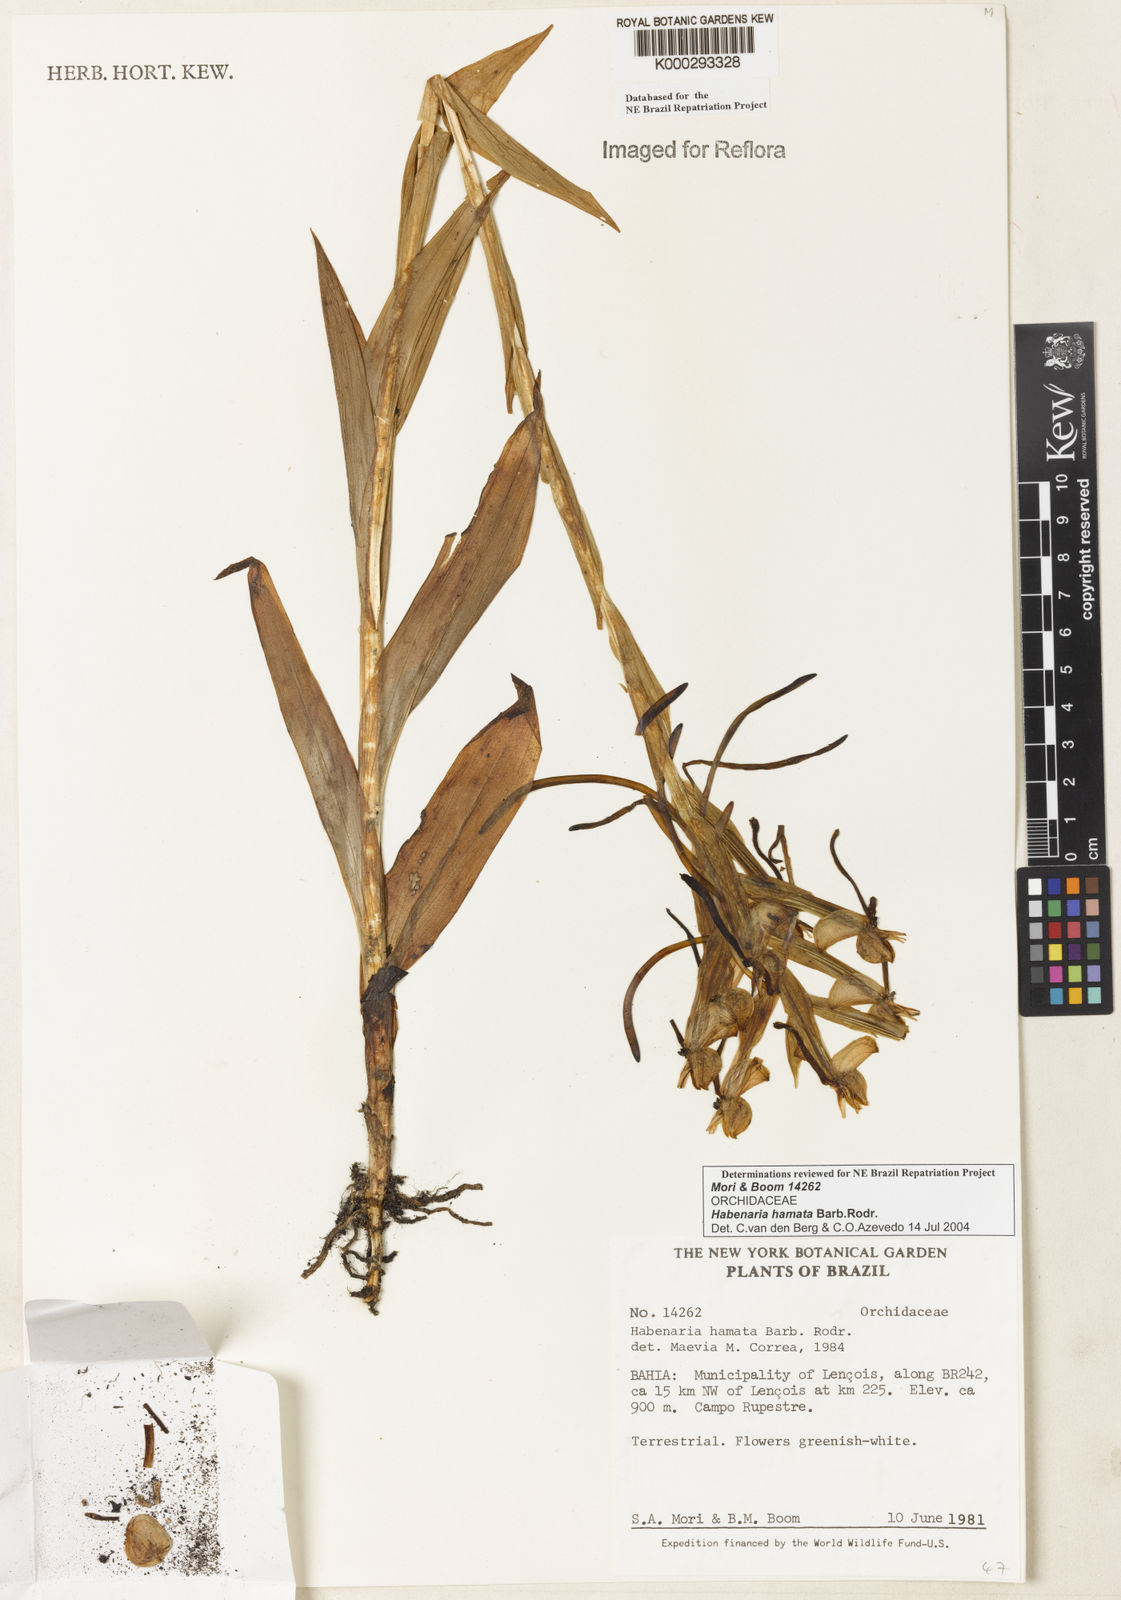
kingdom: Plantae
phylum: Tracheophyta
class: Liliopsida
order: Asparagales
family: Orchidaceae
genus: Habenaria
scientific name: Habenaria hamata
